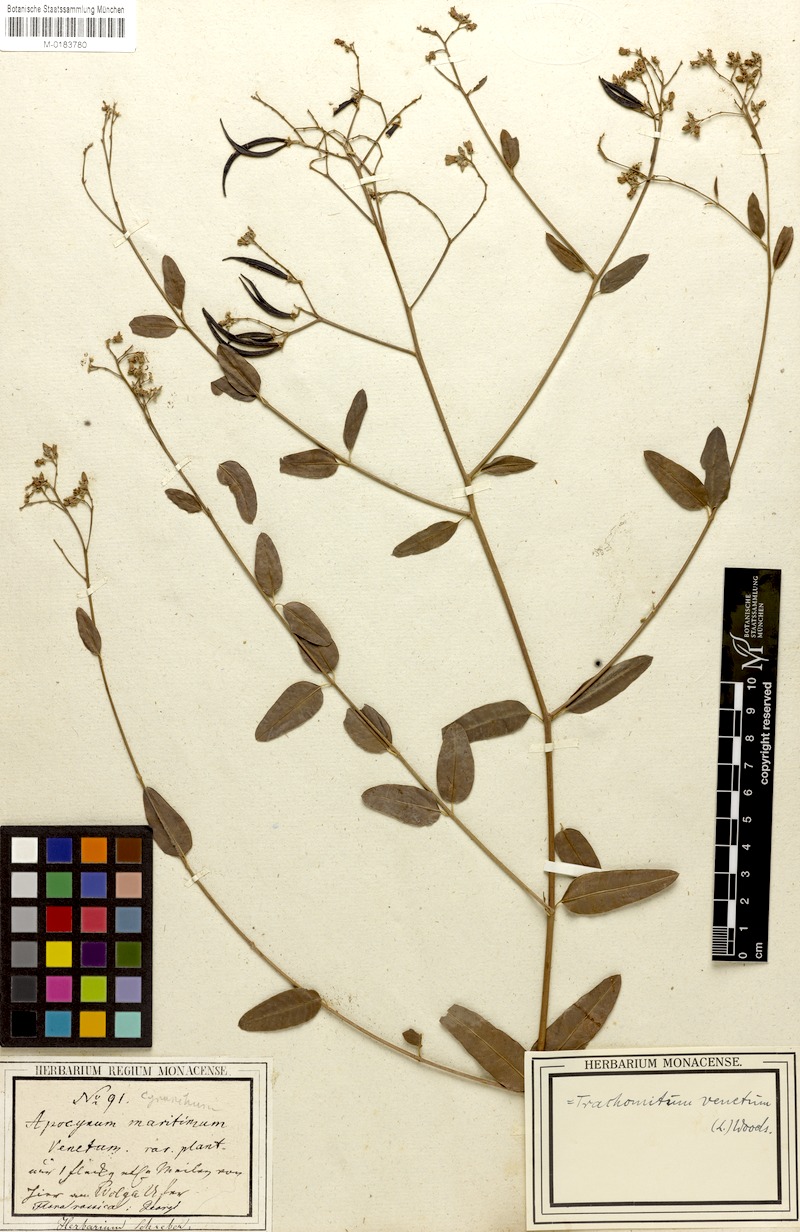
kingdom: Plantae
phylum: Tracheophyta
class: Magnoliopsida
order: Gentianales
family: Apocynaceae
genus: Poacynum
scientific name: Poacynum venetum
